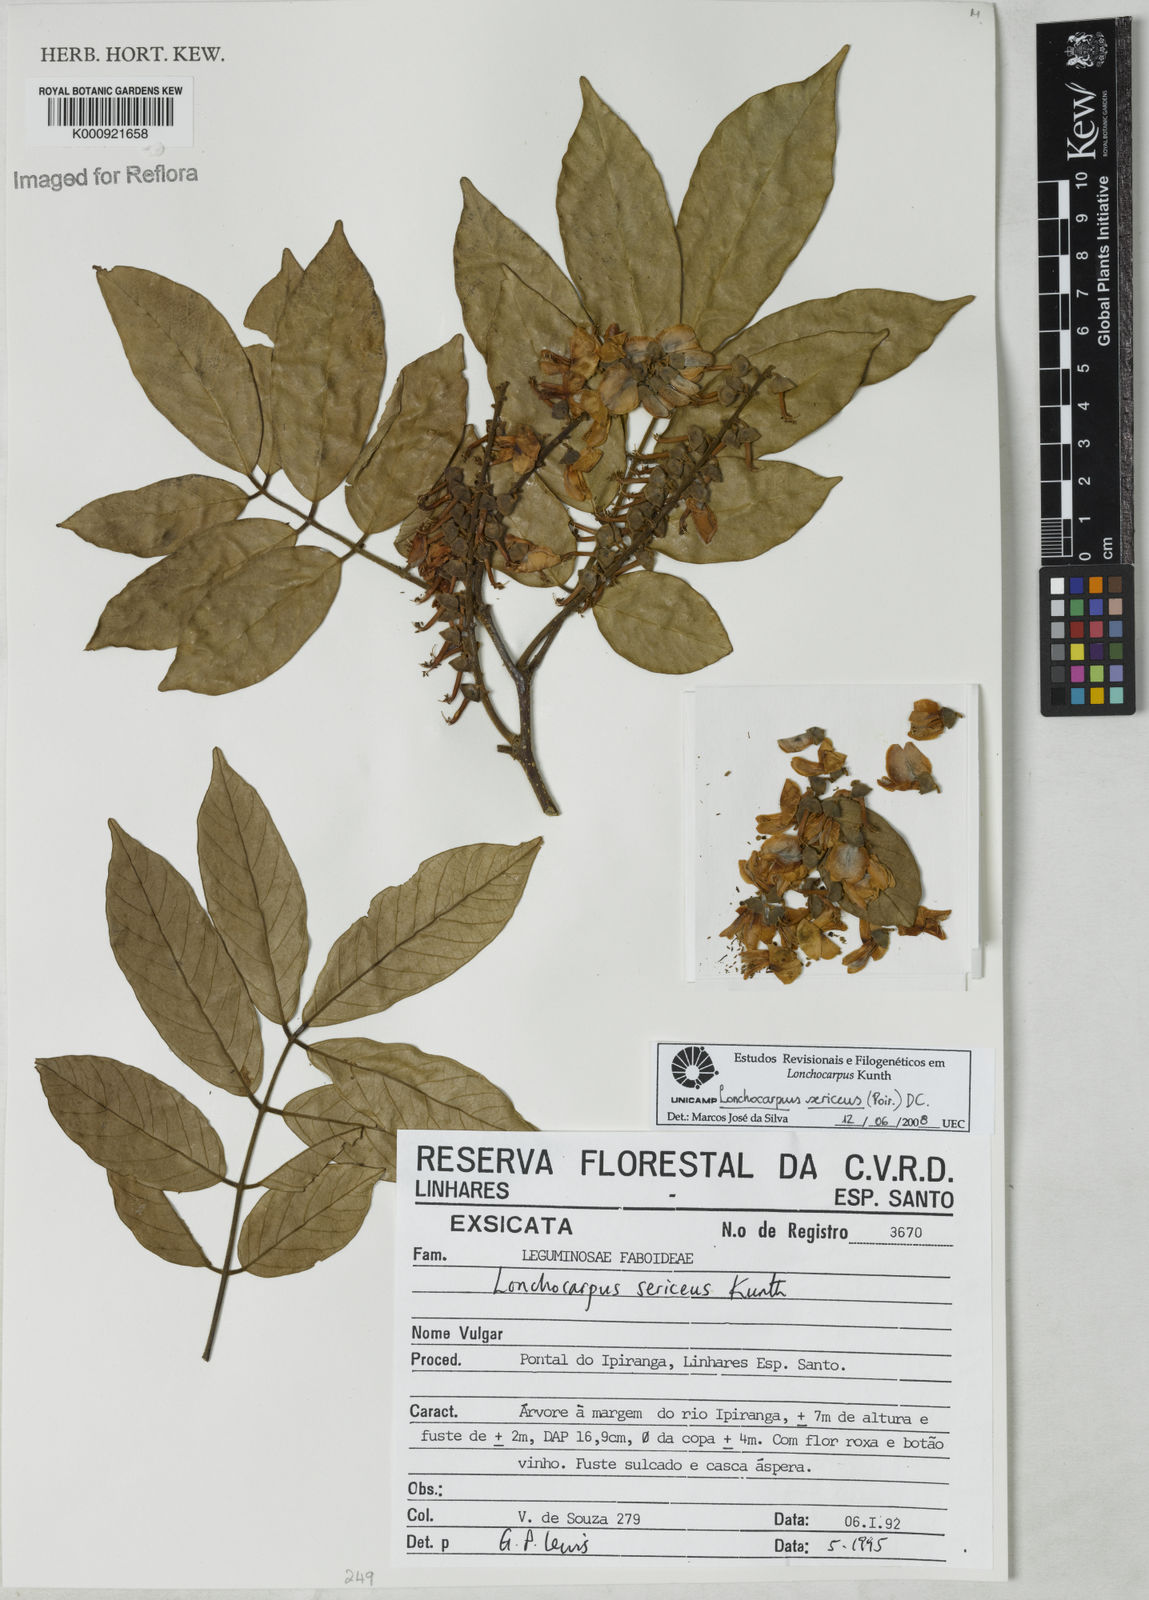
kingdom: Plantae
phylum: Tracheophyta
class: Magnoliopsida
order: Fabales
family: Fabaceae
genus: Lonchocarpus
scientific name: Lonchocarpus
